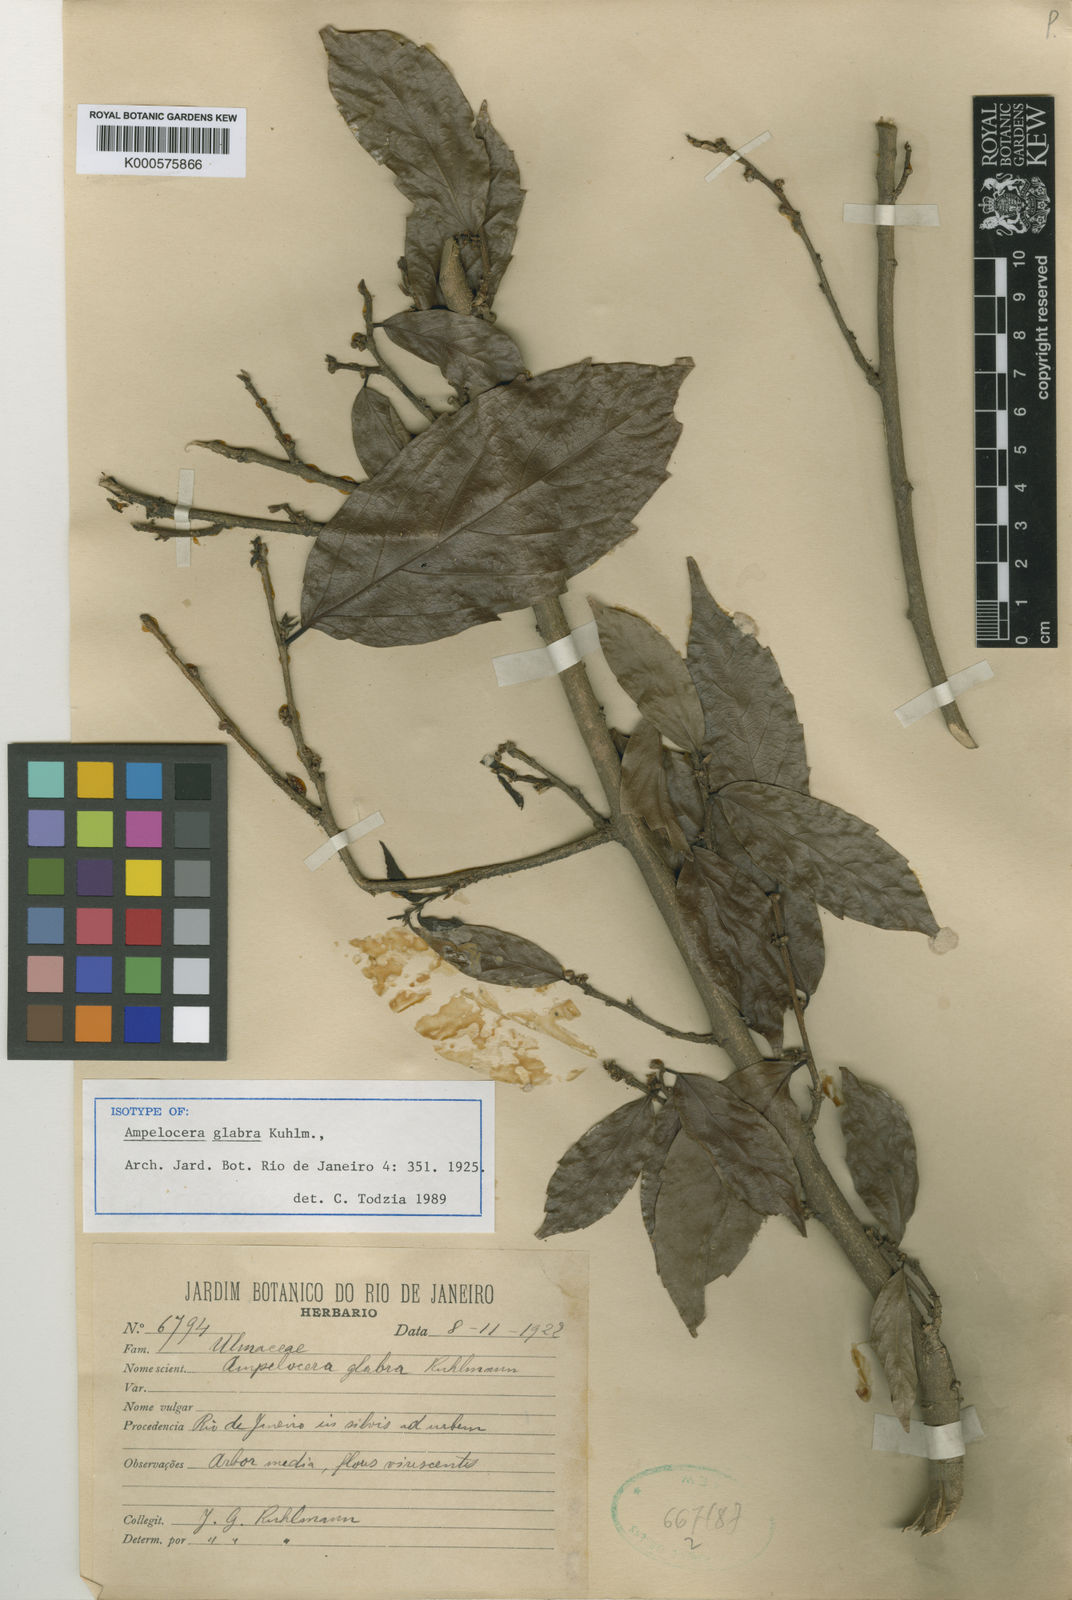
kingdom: Plantae
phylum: Tracheophyta
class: Magnoliopsida
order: Rosales
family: Cannabaceae
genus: Ampelocera
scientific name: Ampelocera glabra
